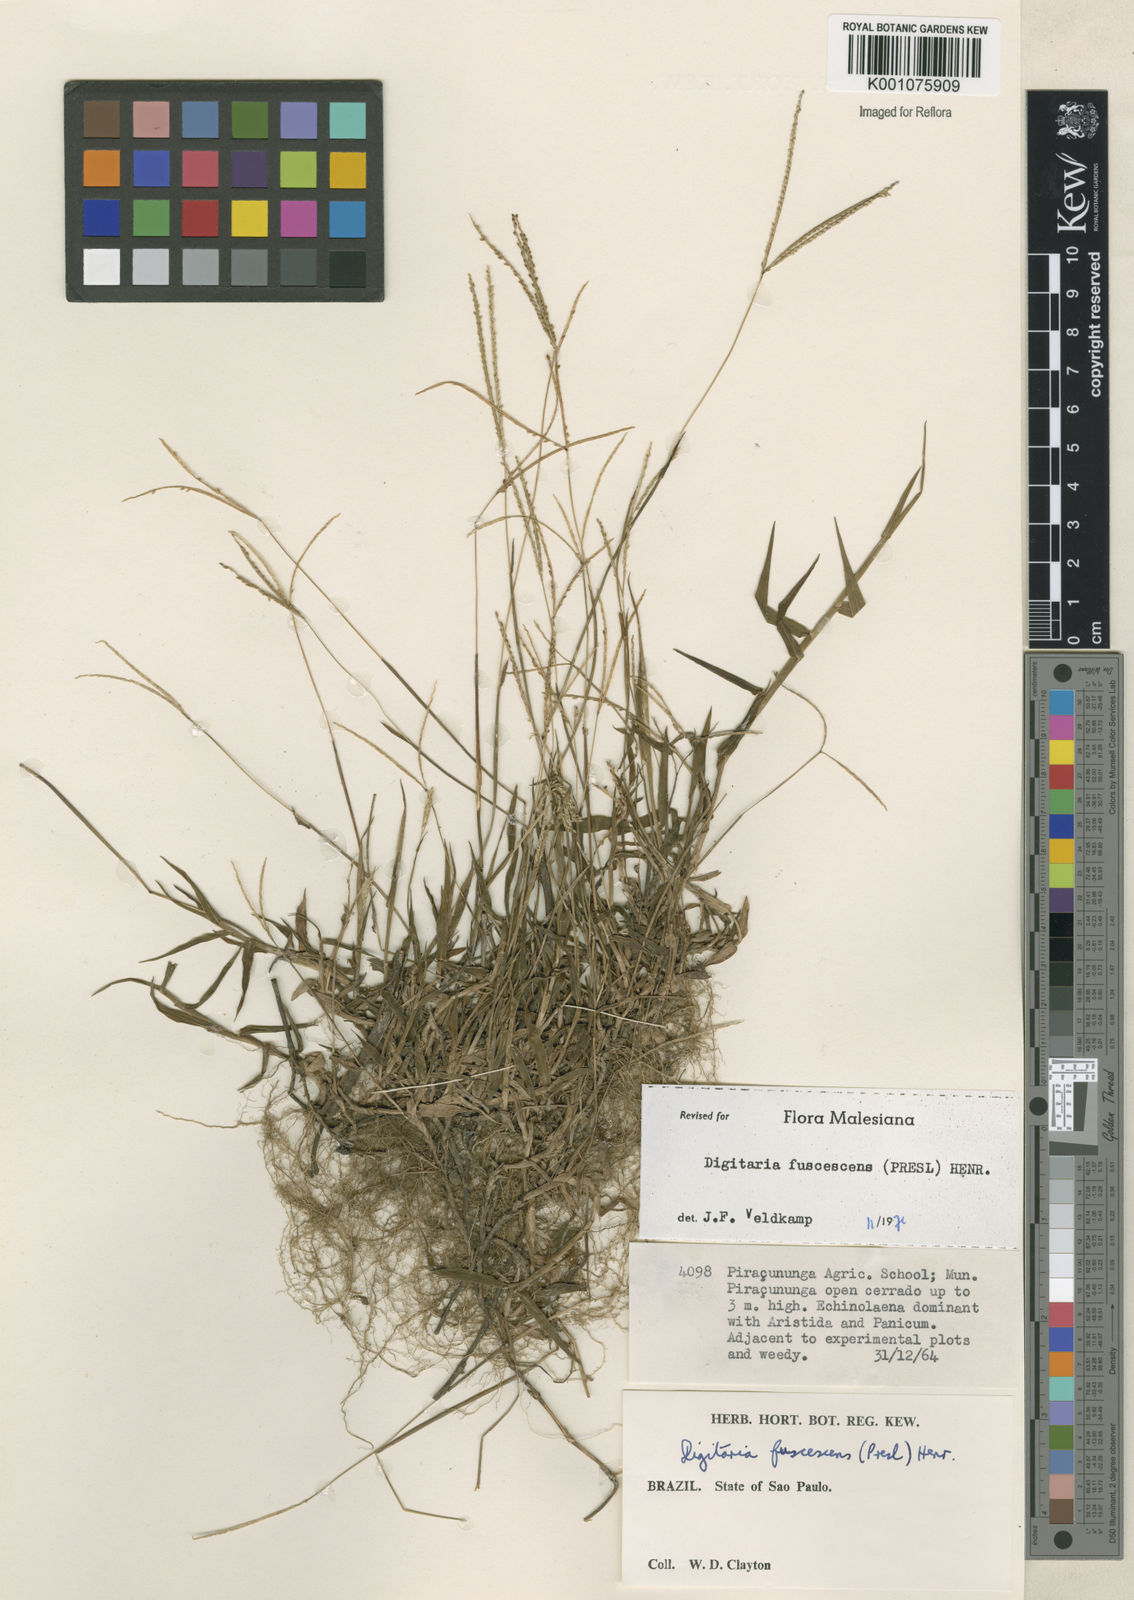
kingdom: Plantae
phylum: Tracheophyta
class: Liliopsida
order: Poales
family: Poaceae
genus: Digitaria
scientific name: Digitaria fuscescens
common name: Yellow crabgrass
